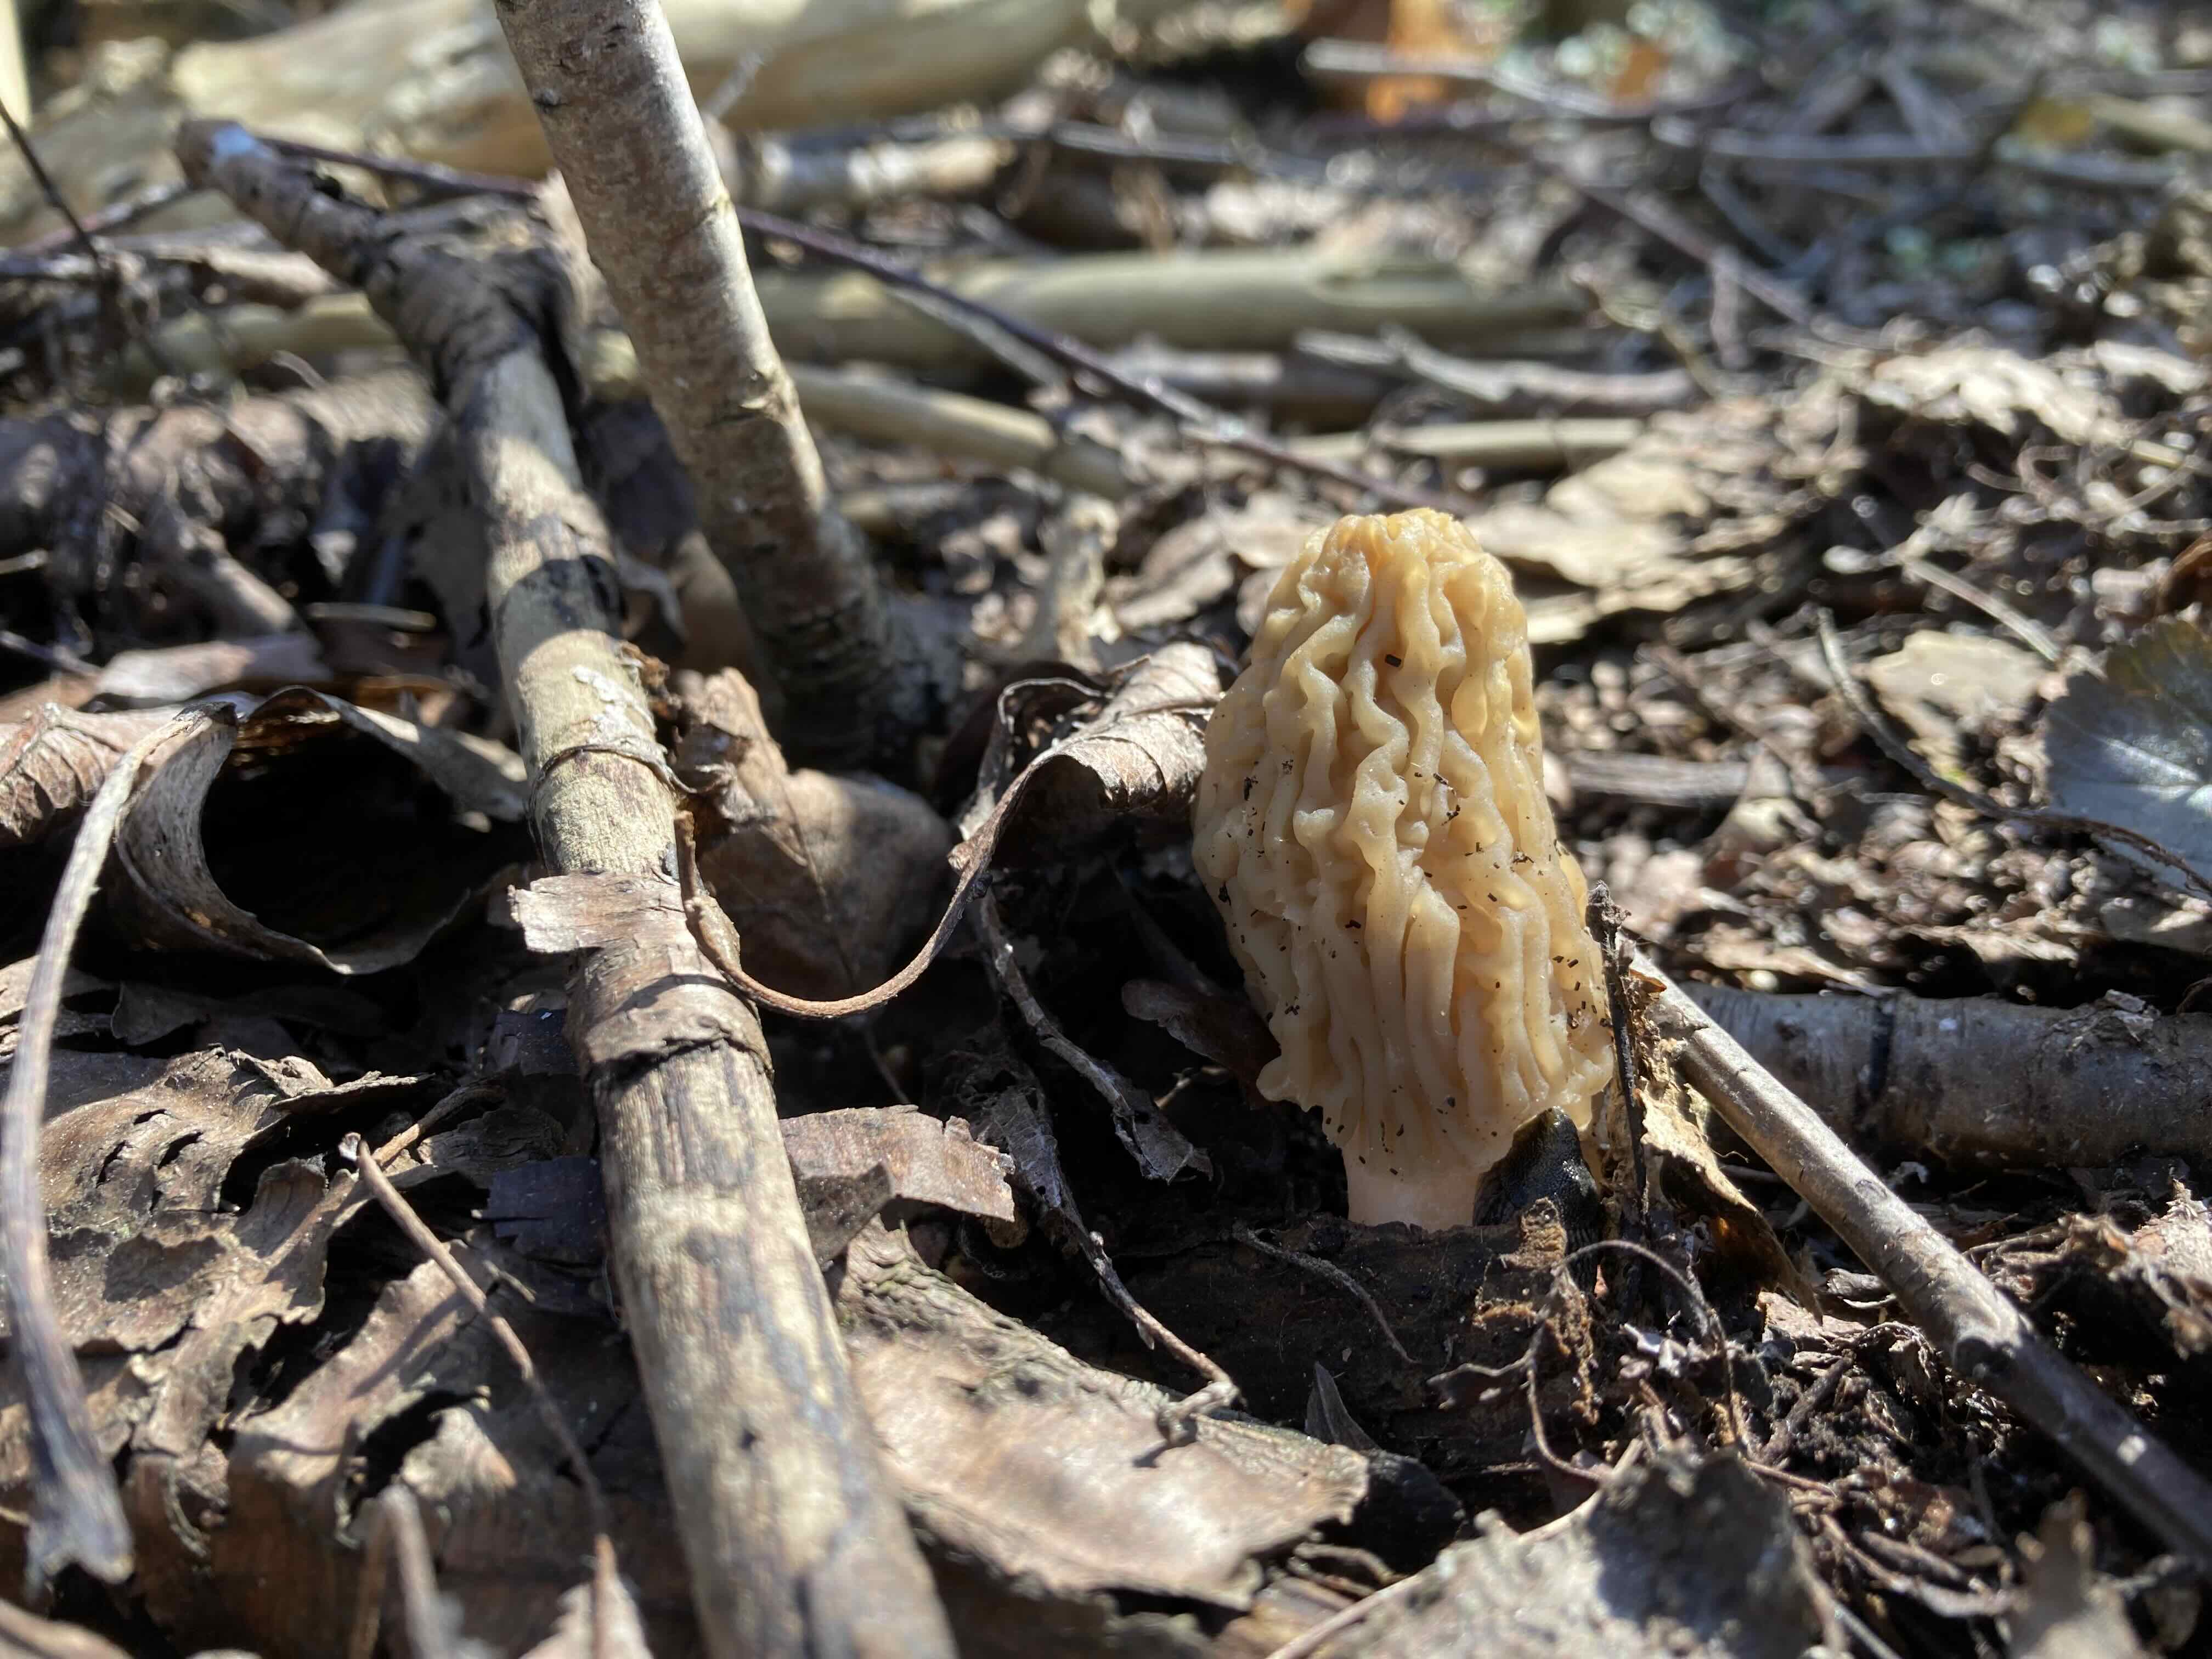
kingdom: Fungi
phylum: Ascomycota
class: Pezizomycetes
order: Pezizales
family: Morchellaceae
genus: Verpa
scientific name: Verpa bohemica
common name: rynket klokkemorkel
